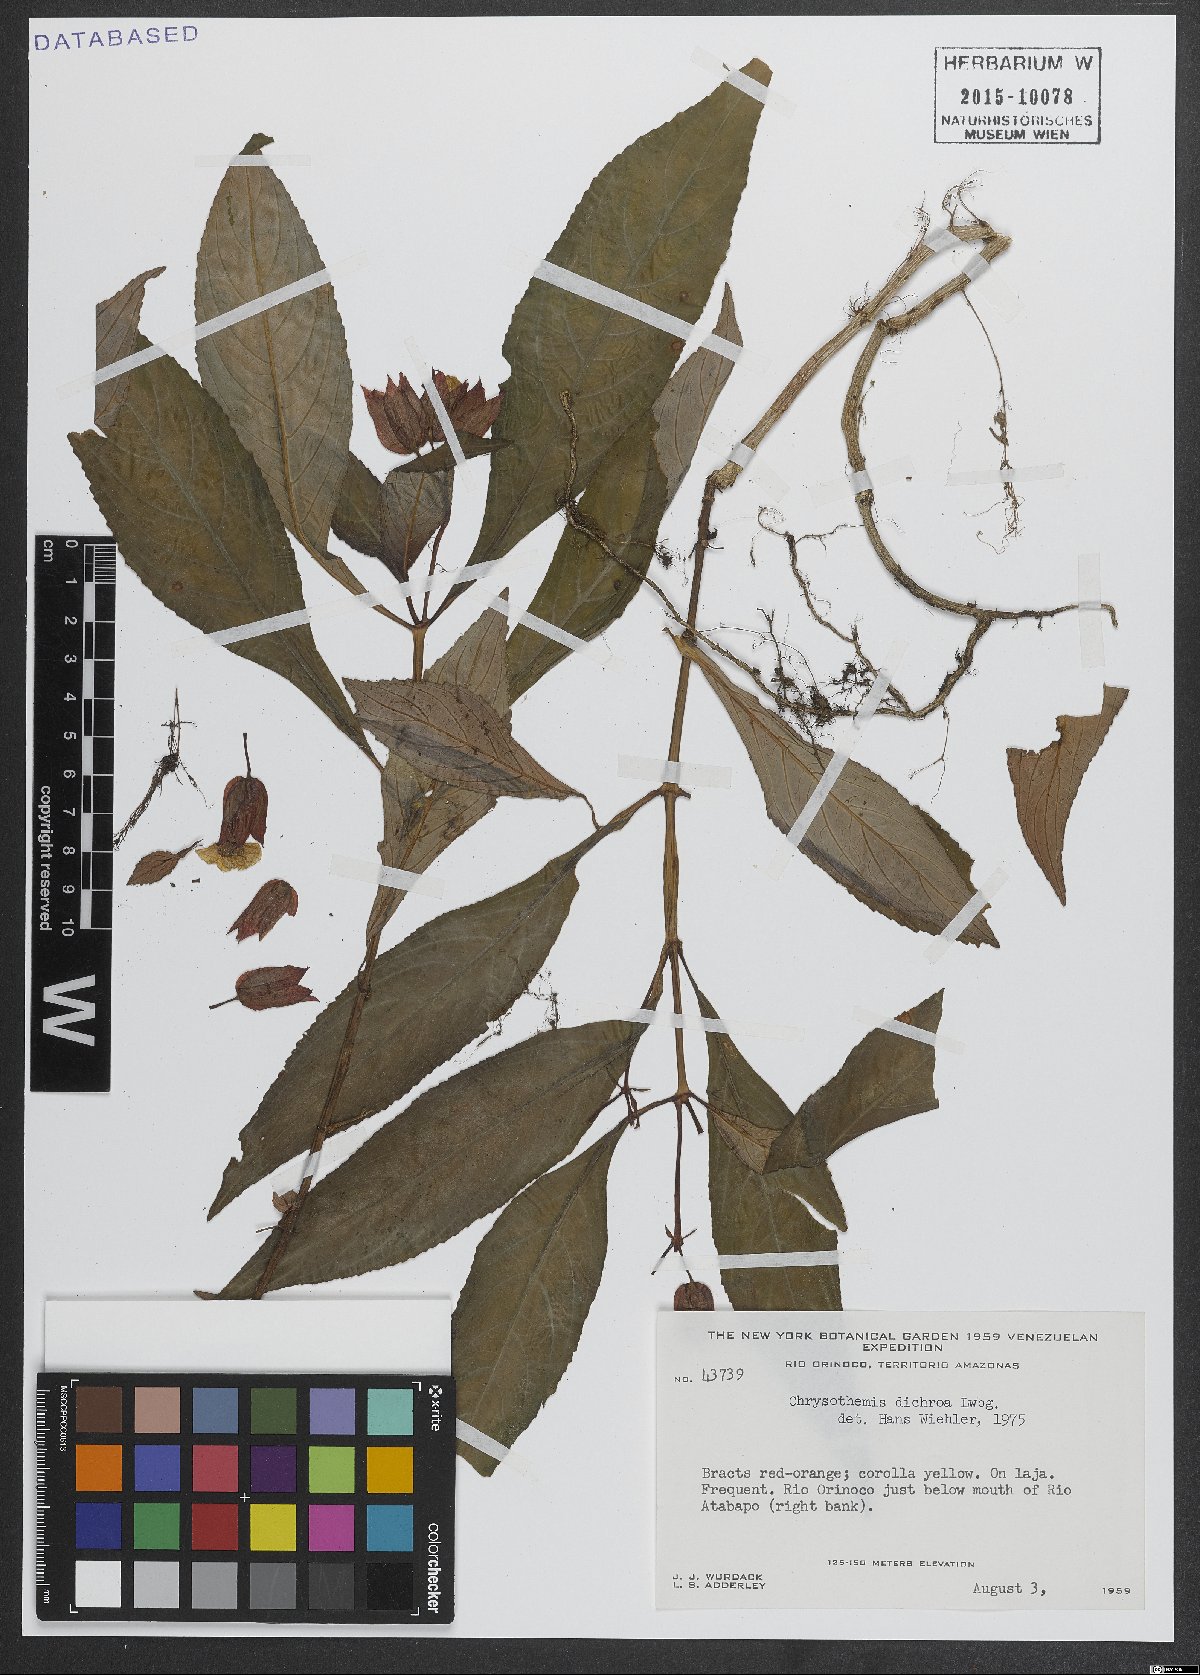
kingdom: Plantae
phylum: Tracheophyta
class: Magnoliopsida
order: Lamiales
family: Gesneriaceae
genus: Chrysothemis
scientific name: Chrysothemis dichroa
